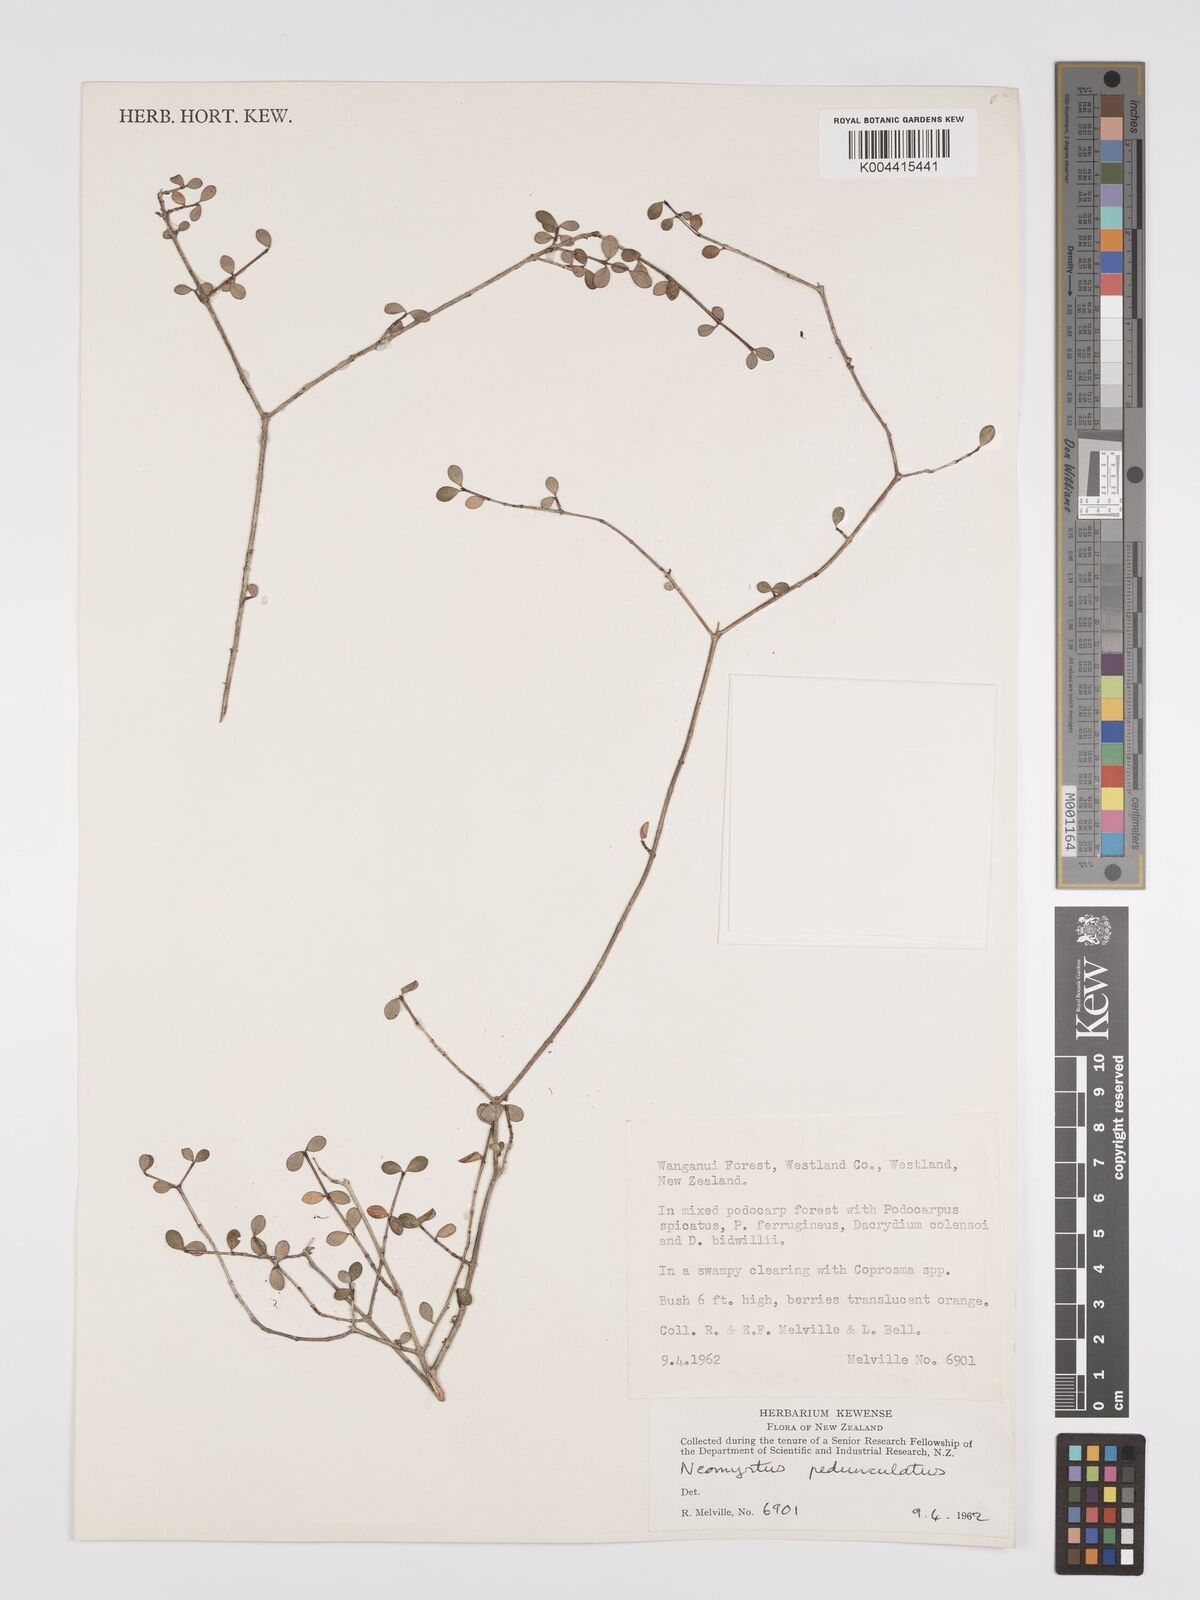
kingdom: Plantae
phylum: Tracheophyta
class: Magnoliopsida
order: Myrtales
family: Myrtaceae
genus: Neomyrtus
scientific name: Neomyrtus pedunculata
